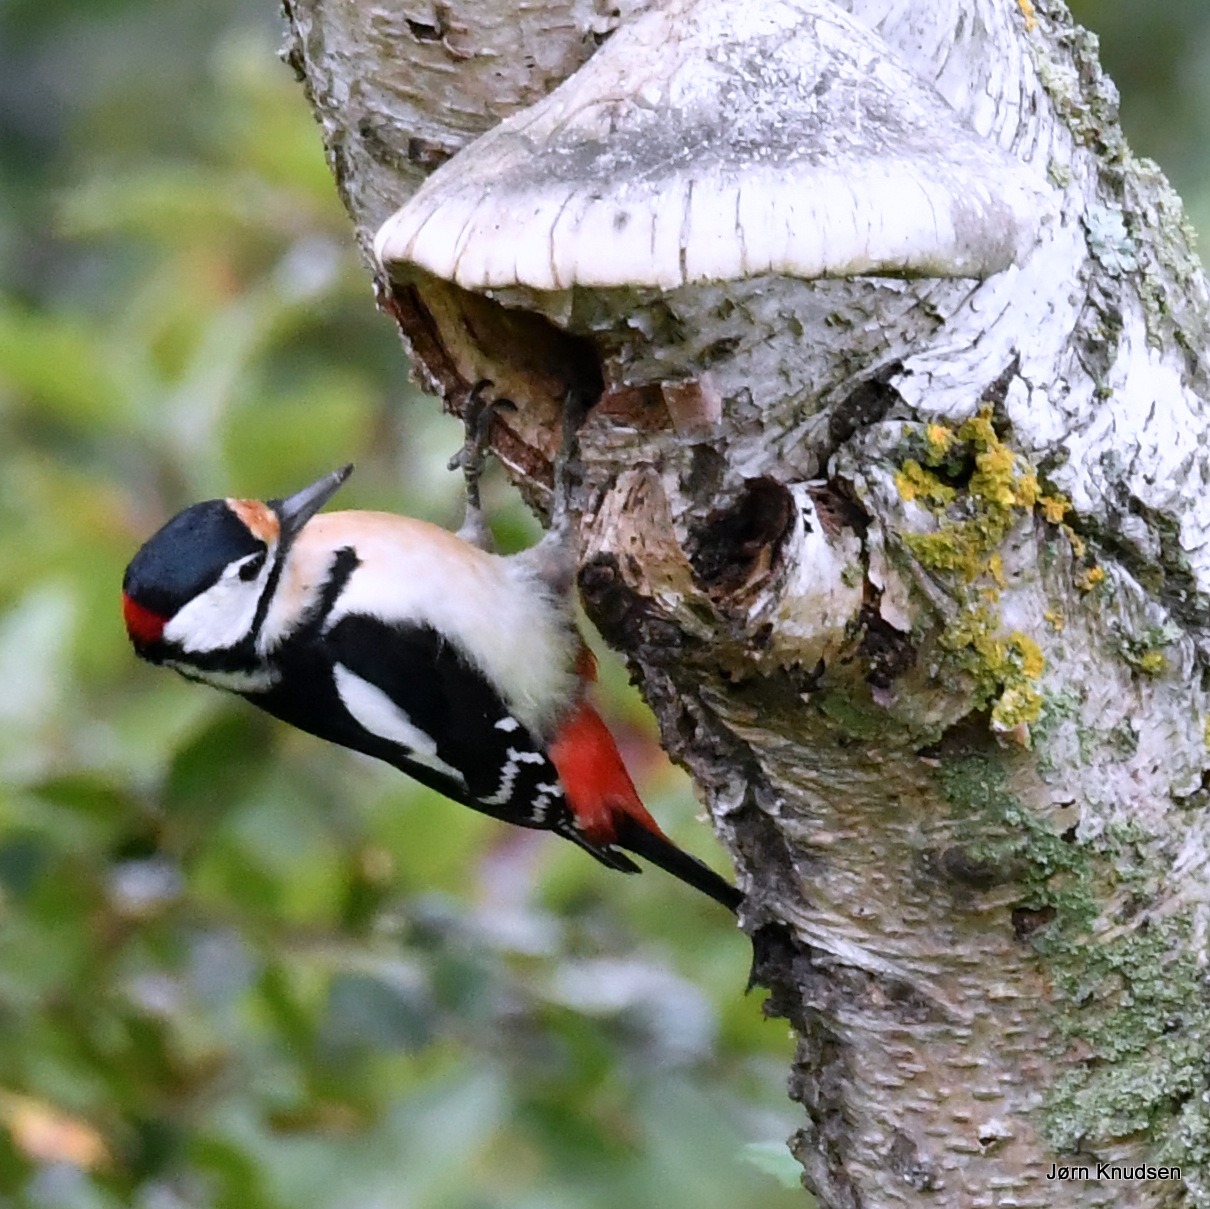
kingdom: Animalia
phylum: Chordata
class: Aves
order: Piciformes
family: Picidae
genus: Dendrocopos
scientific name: Dendrocopos major
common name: Stor flagspætte
